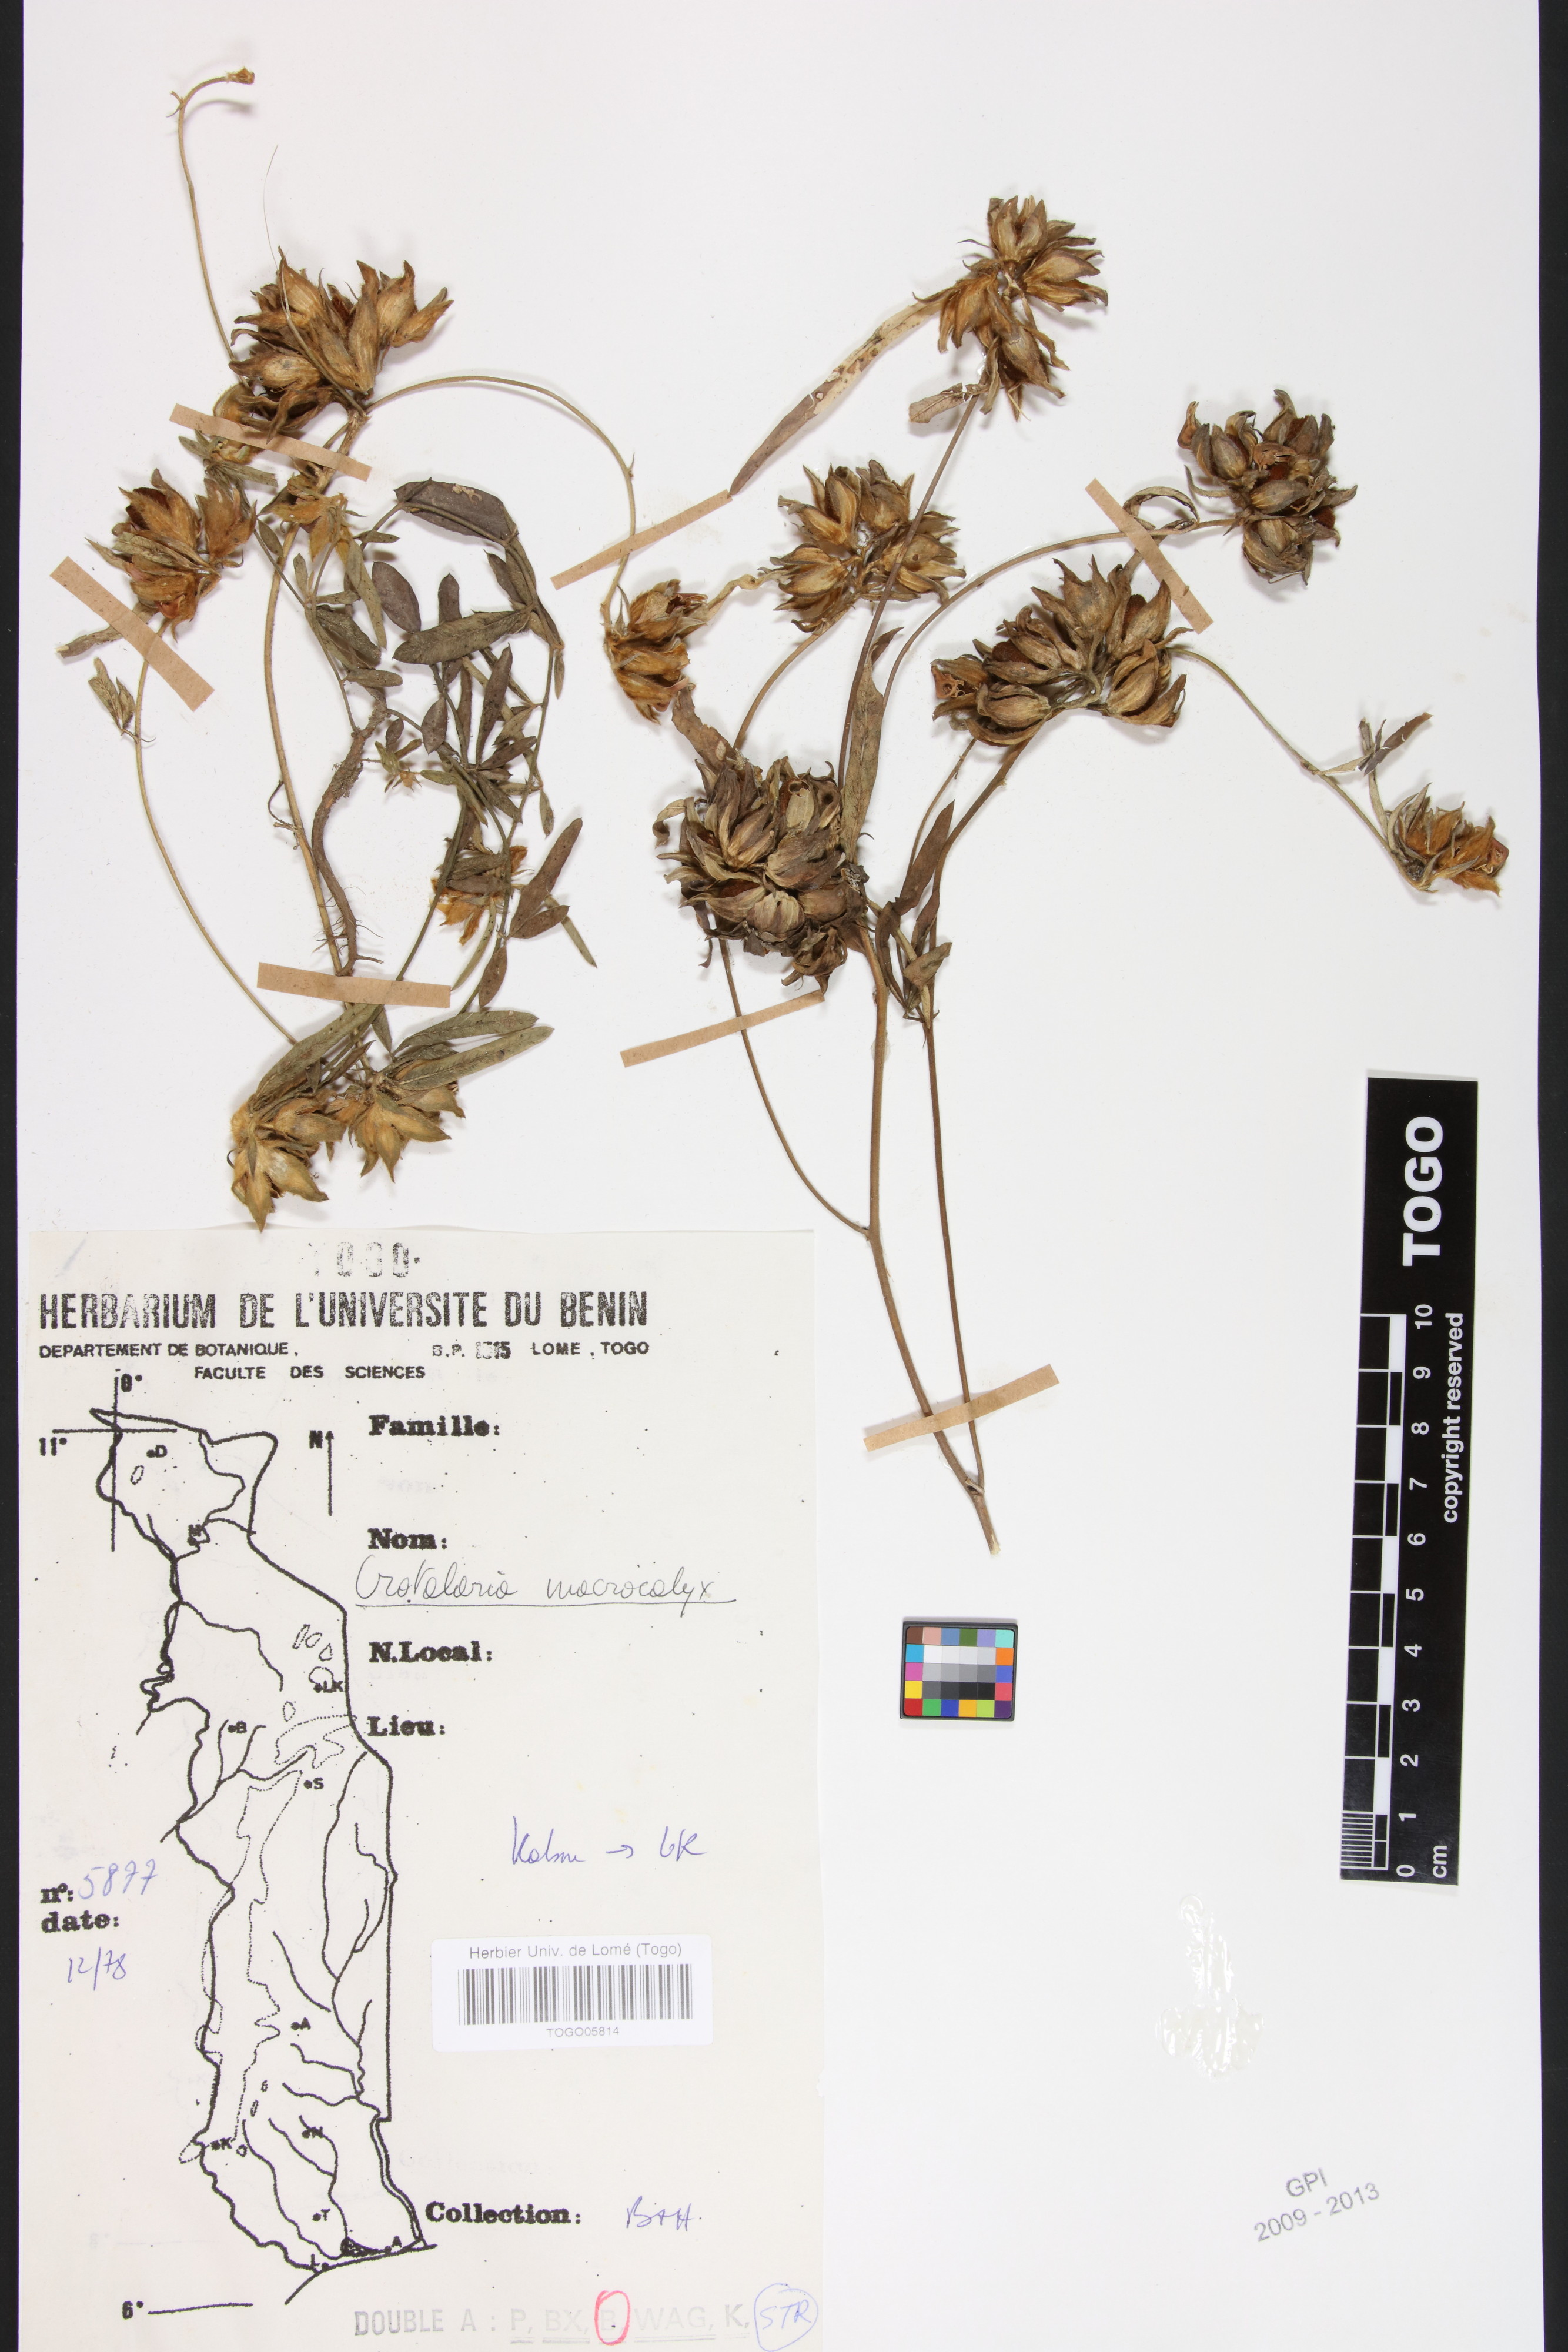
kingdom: Plantae
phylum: Tracheophyta
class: Magnoliopsida
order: Fabales
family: Fabaceae
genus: Crotalaria
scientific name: Crotalaria macrocalyx
